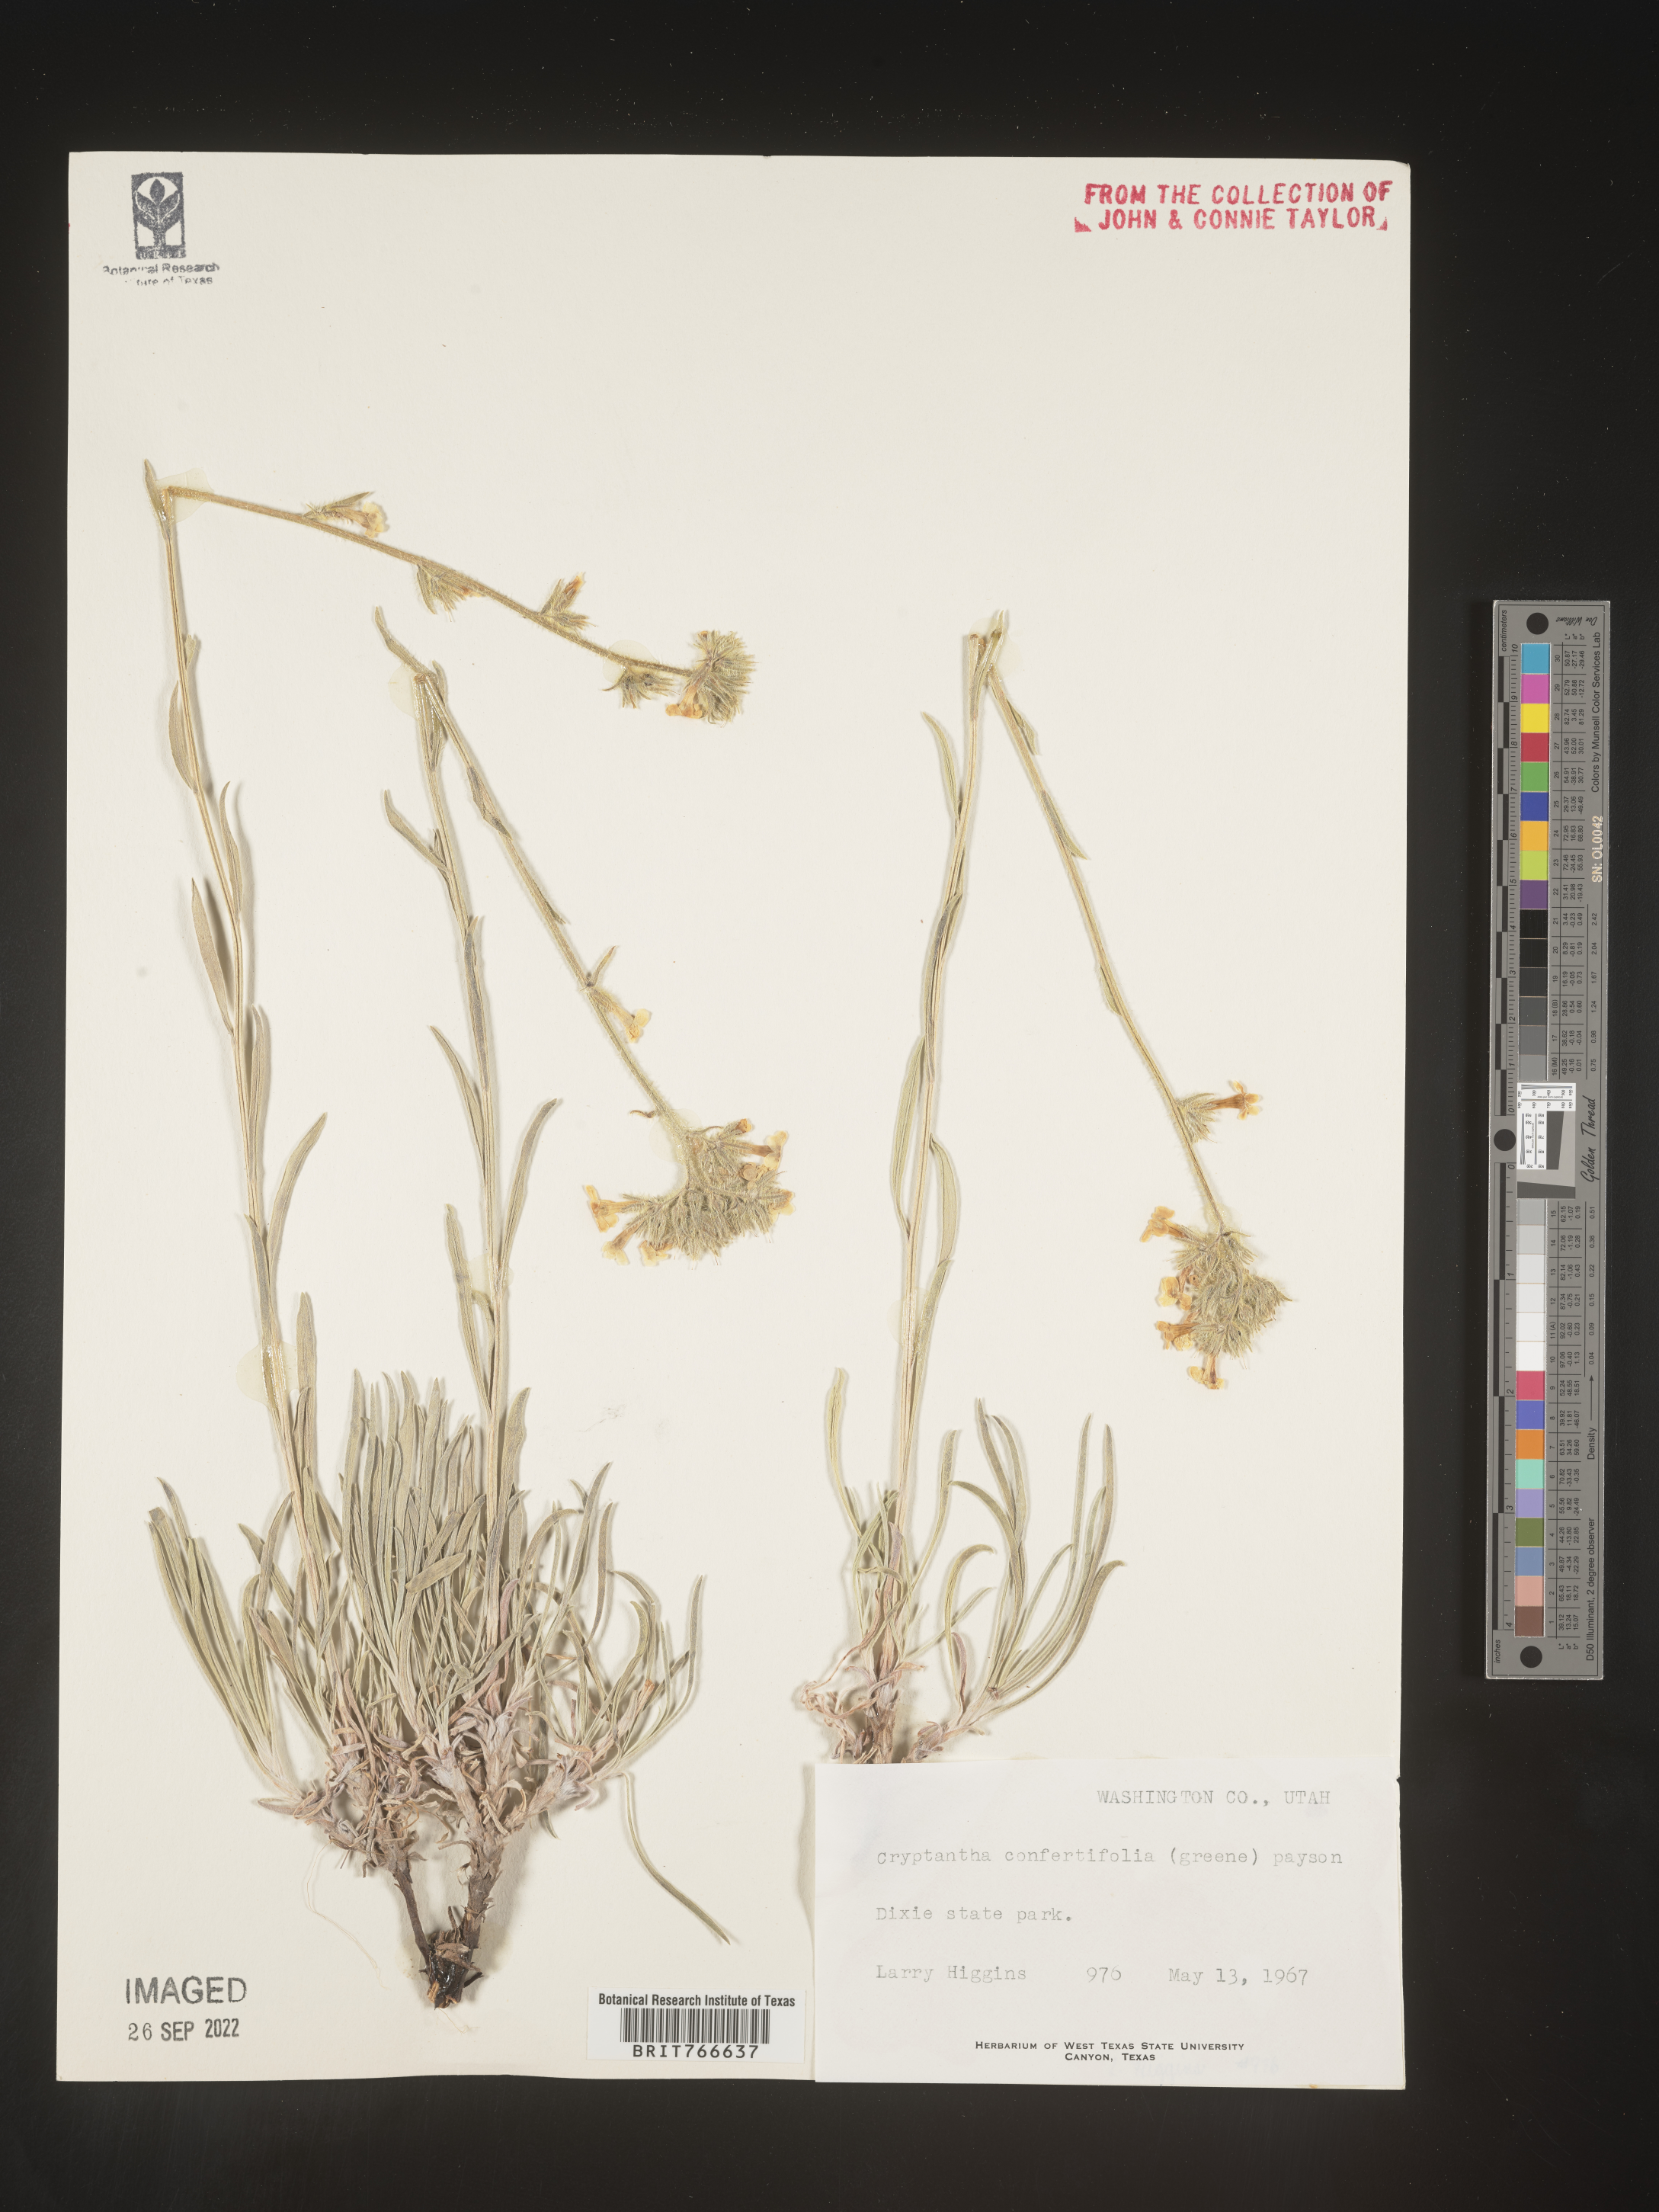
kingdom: Plantae
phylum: Tracheophyta
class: Magnoliopsida
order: Boraginales
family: Boraginaceae
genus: Cryptantha
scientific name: Cryptantha
